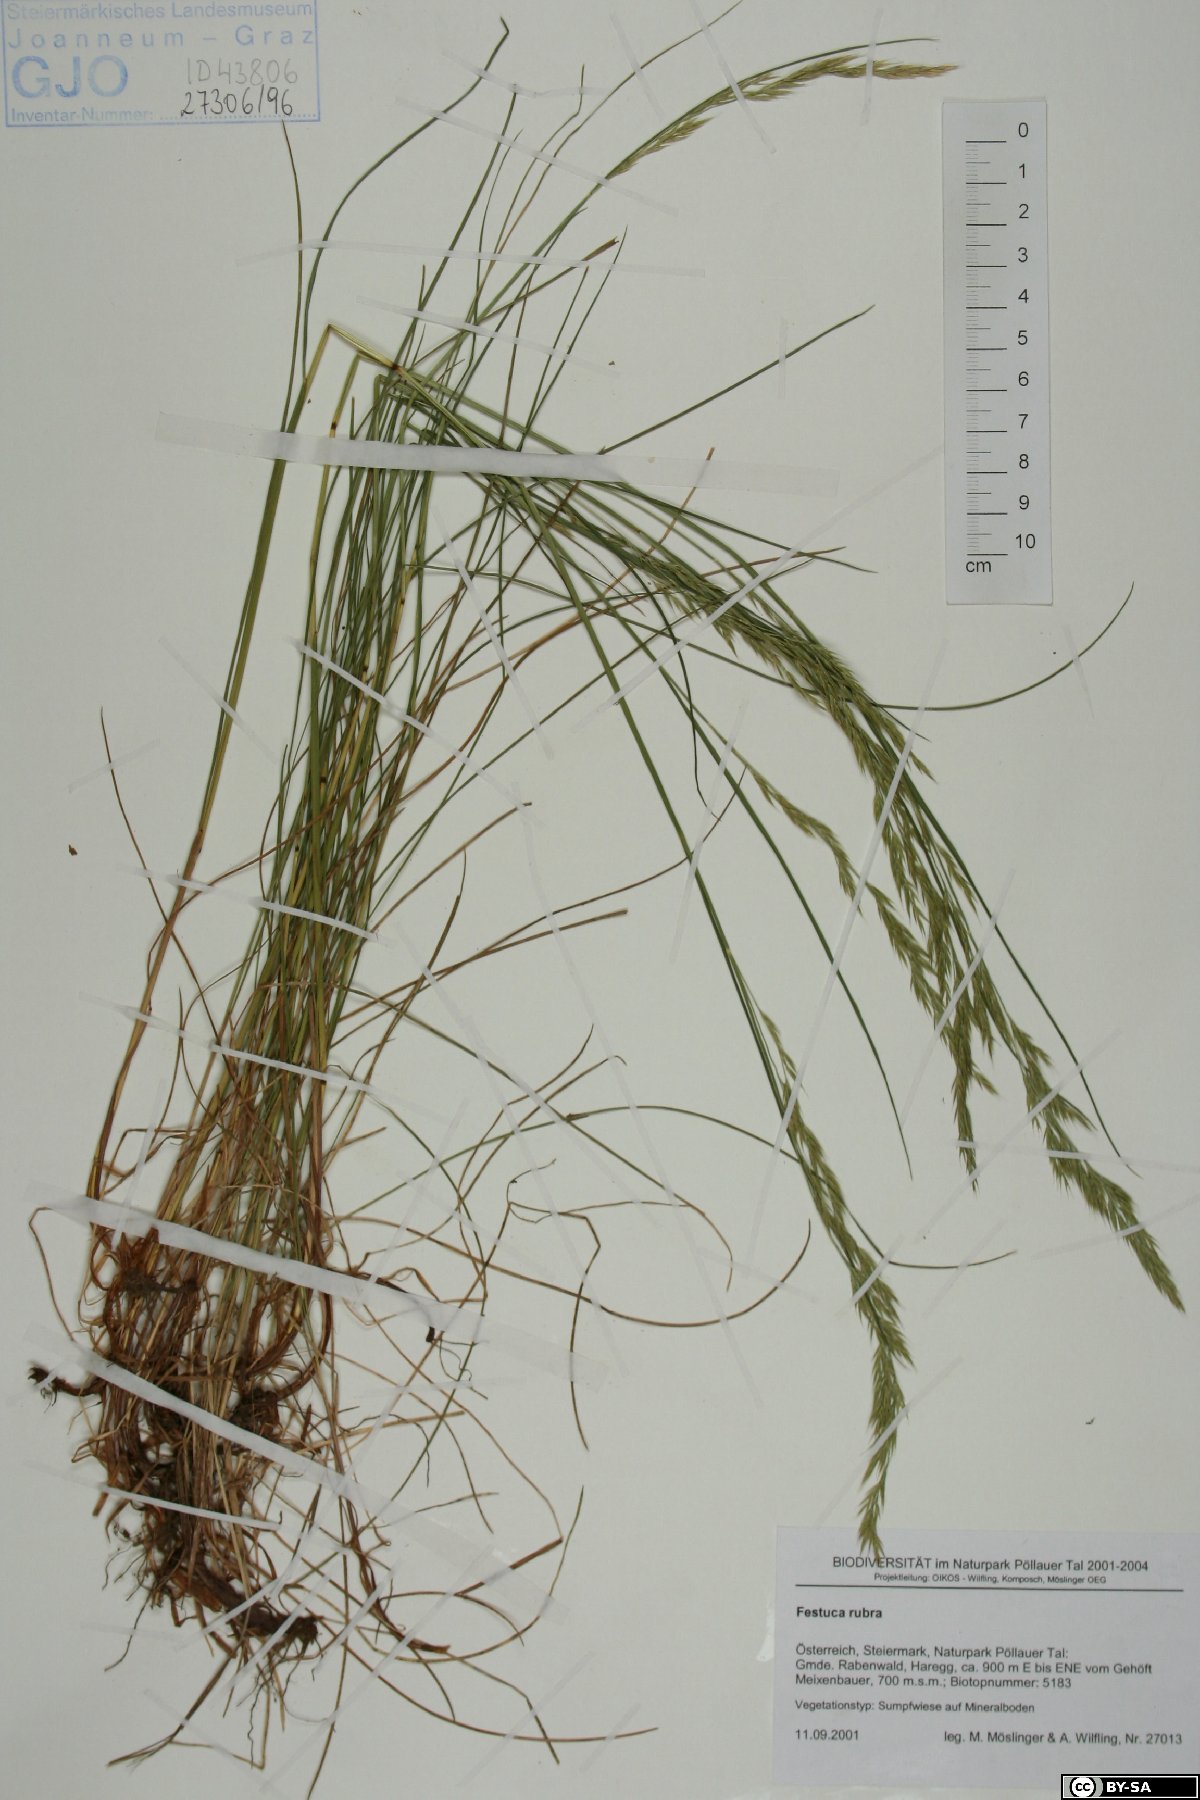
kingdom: Plantae
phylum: Tracheophyta
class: Liliopsida
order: Poales
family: Poaceae
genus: Festuca
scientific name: Festuca rubra
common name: Red fescue
